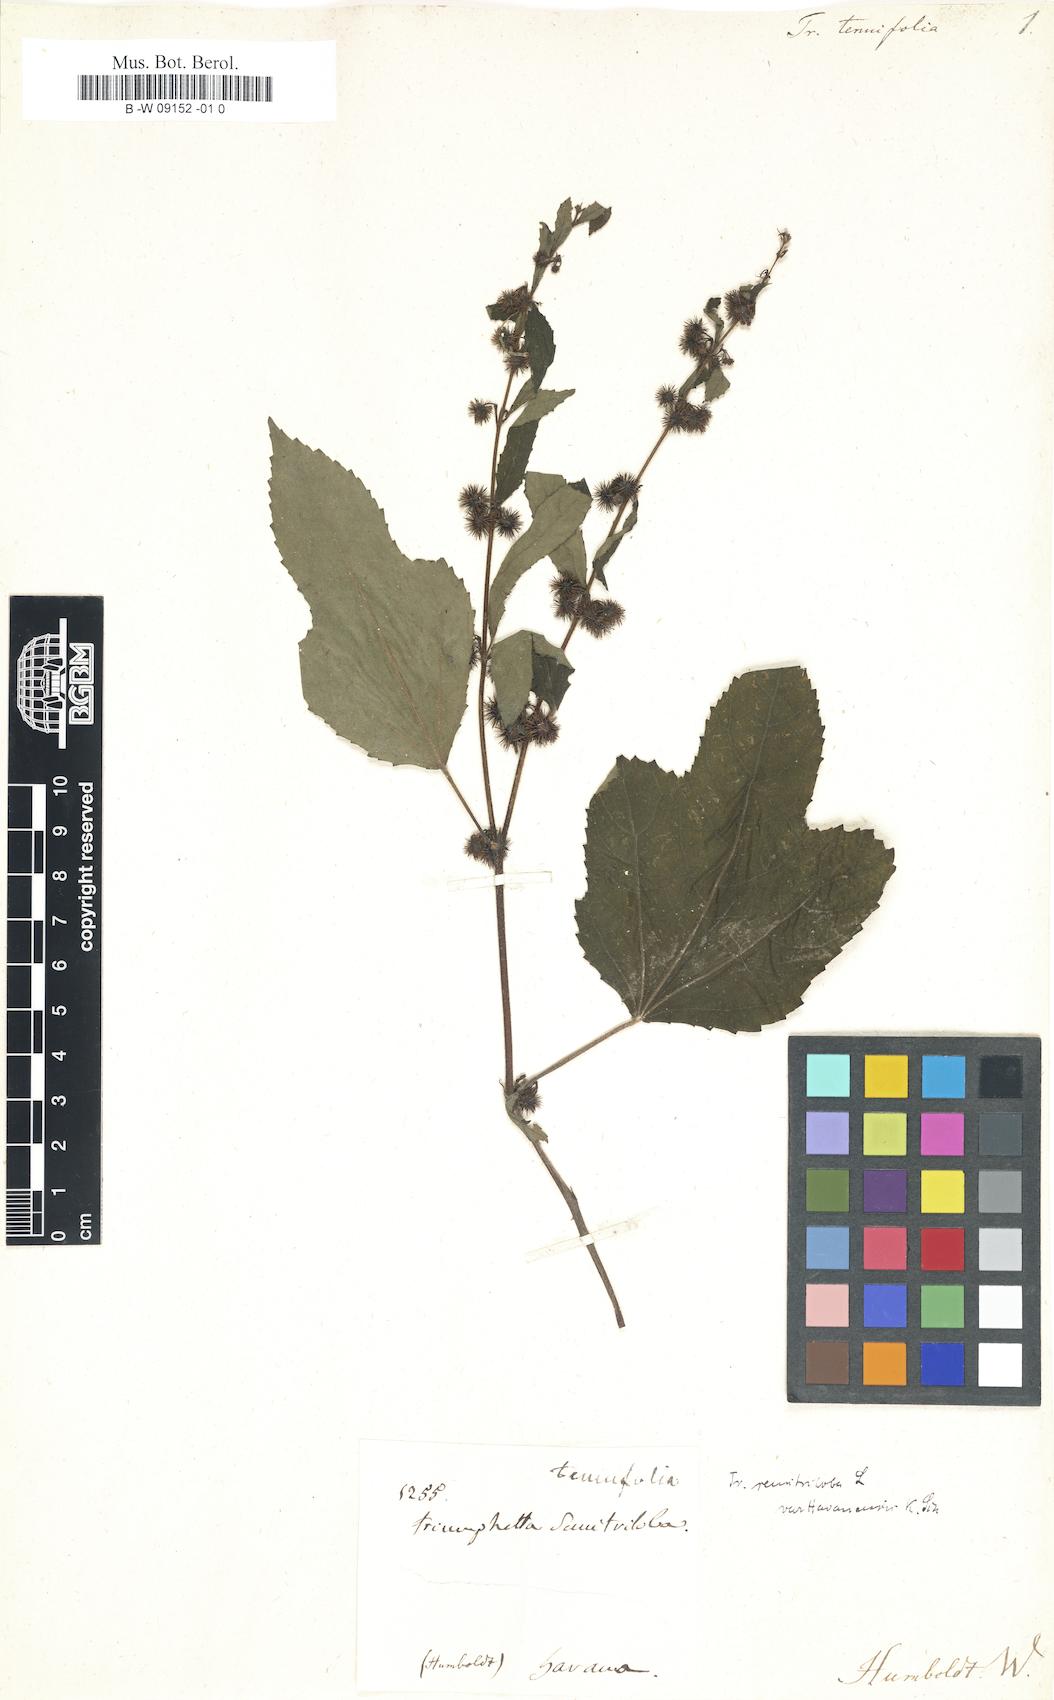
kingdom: Plantae
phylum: Tracheophyta
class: Magnoliopsida
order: Malvales
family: Malvaceae
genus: Triumfetta
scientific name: Triumfetta
